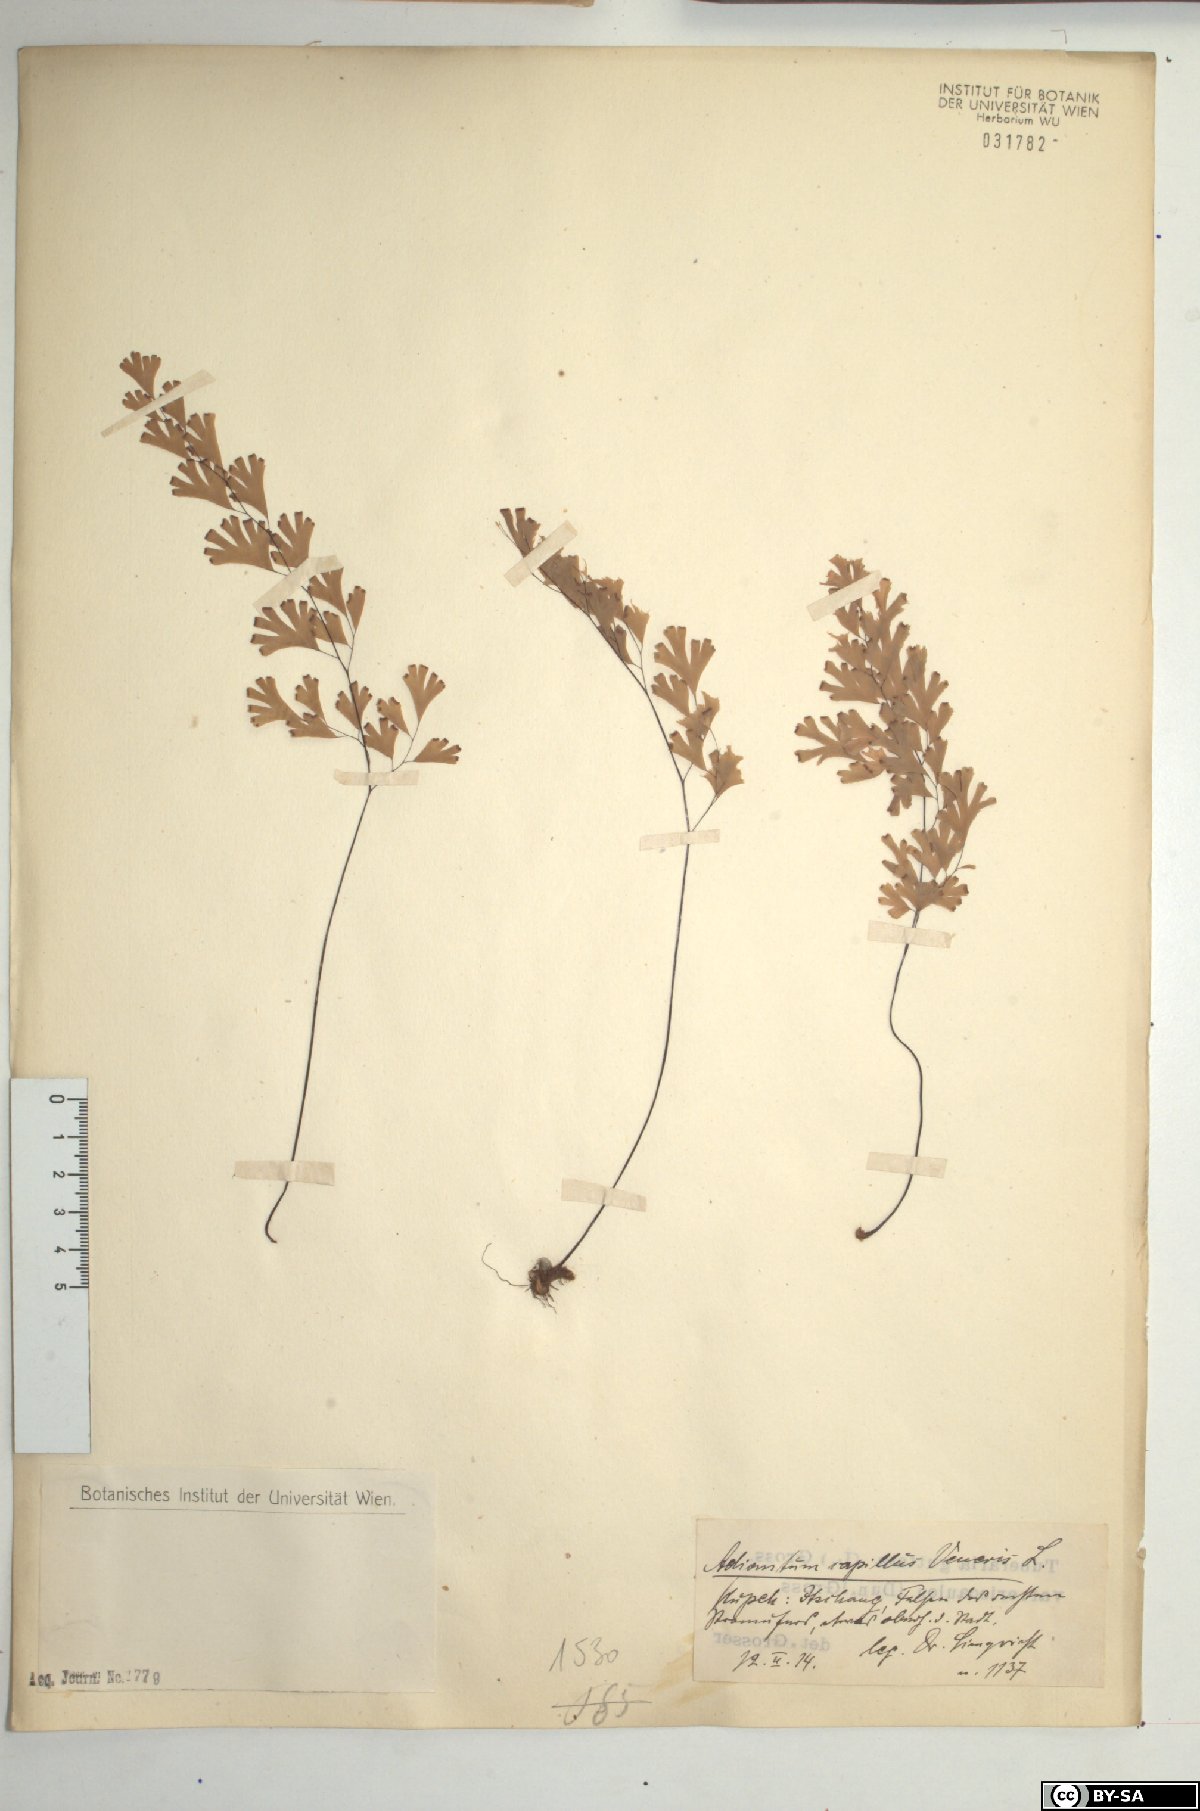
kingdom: Plantae
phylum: Tracheophyta
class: Polypodiopsida
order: Polypodiales
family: Pteridaceae
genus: Adiantum
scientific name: Adiantum capillus-veneris
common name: Maidenhair fern
